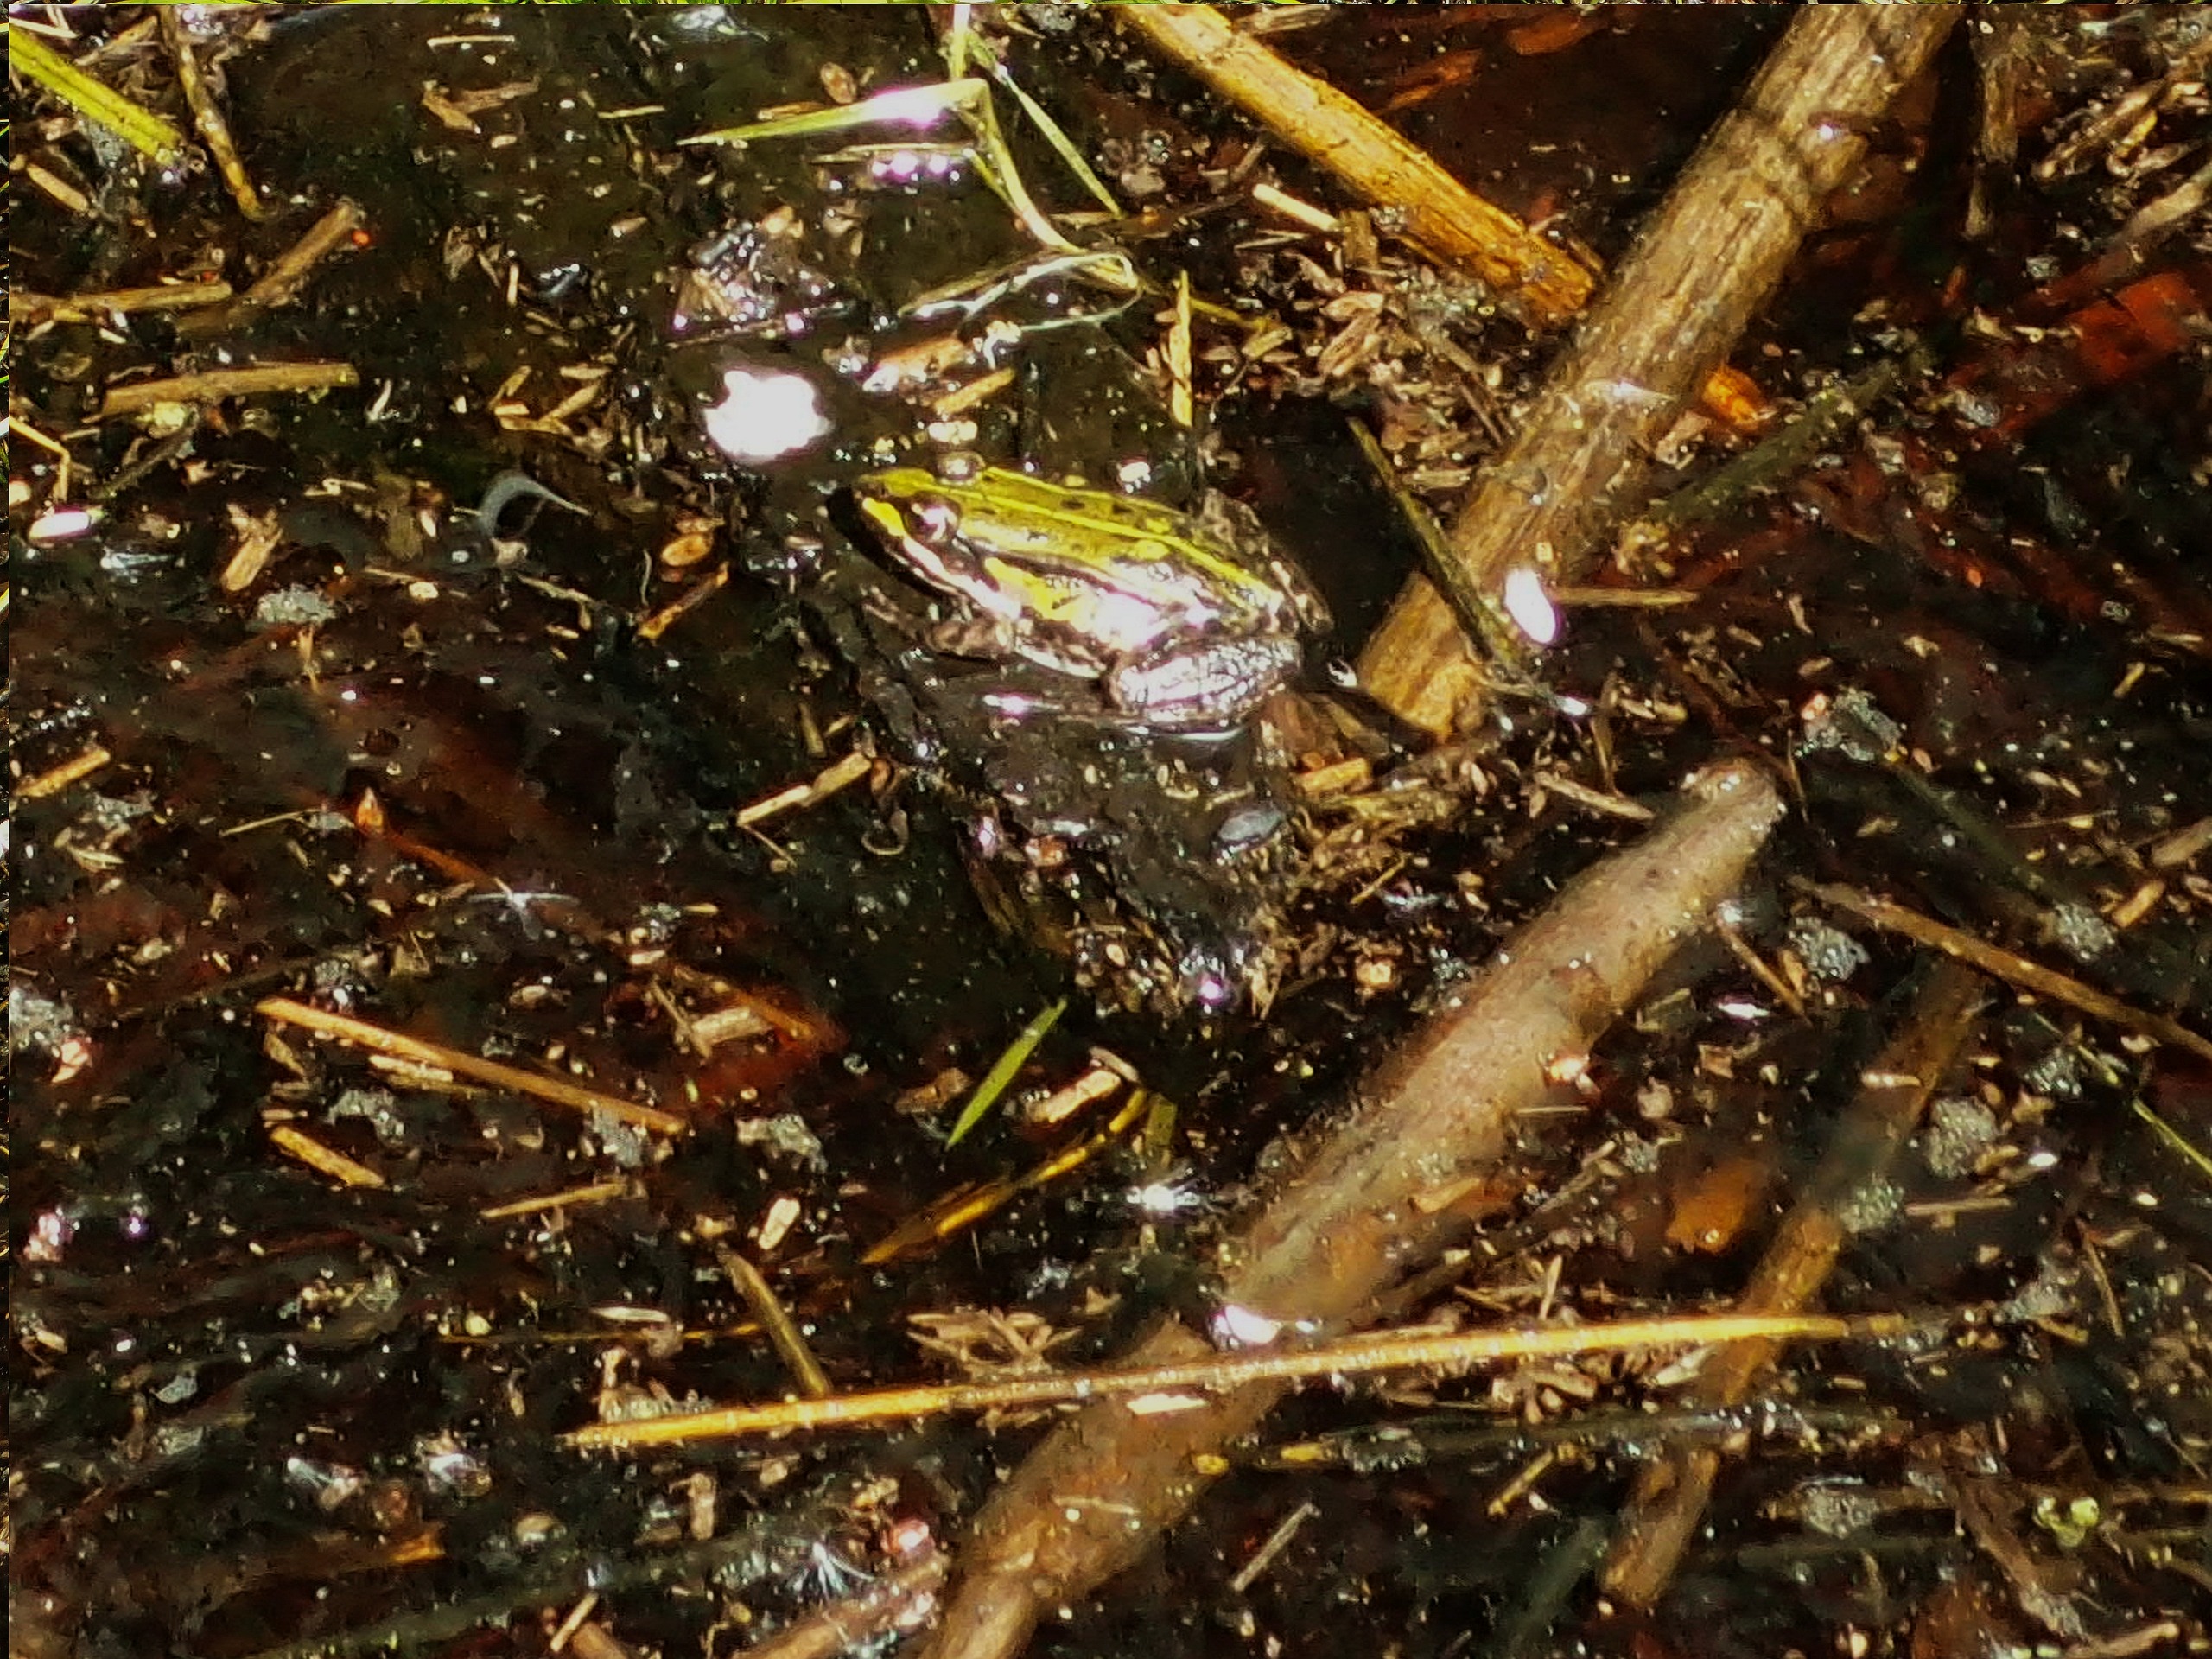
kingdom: Animalia
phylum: Chordata
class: Amphibia
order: Anura
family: Ranidae
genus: Pelophylax
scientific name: Pelophylax lessonae
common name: Grøn frø
